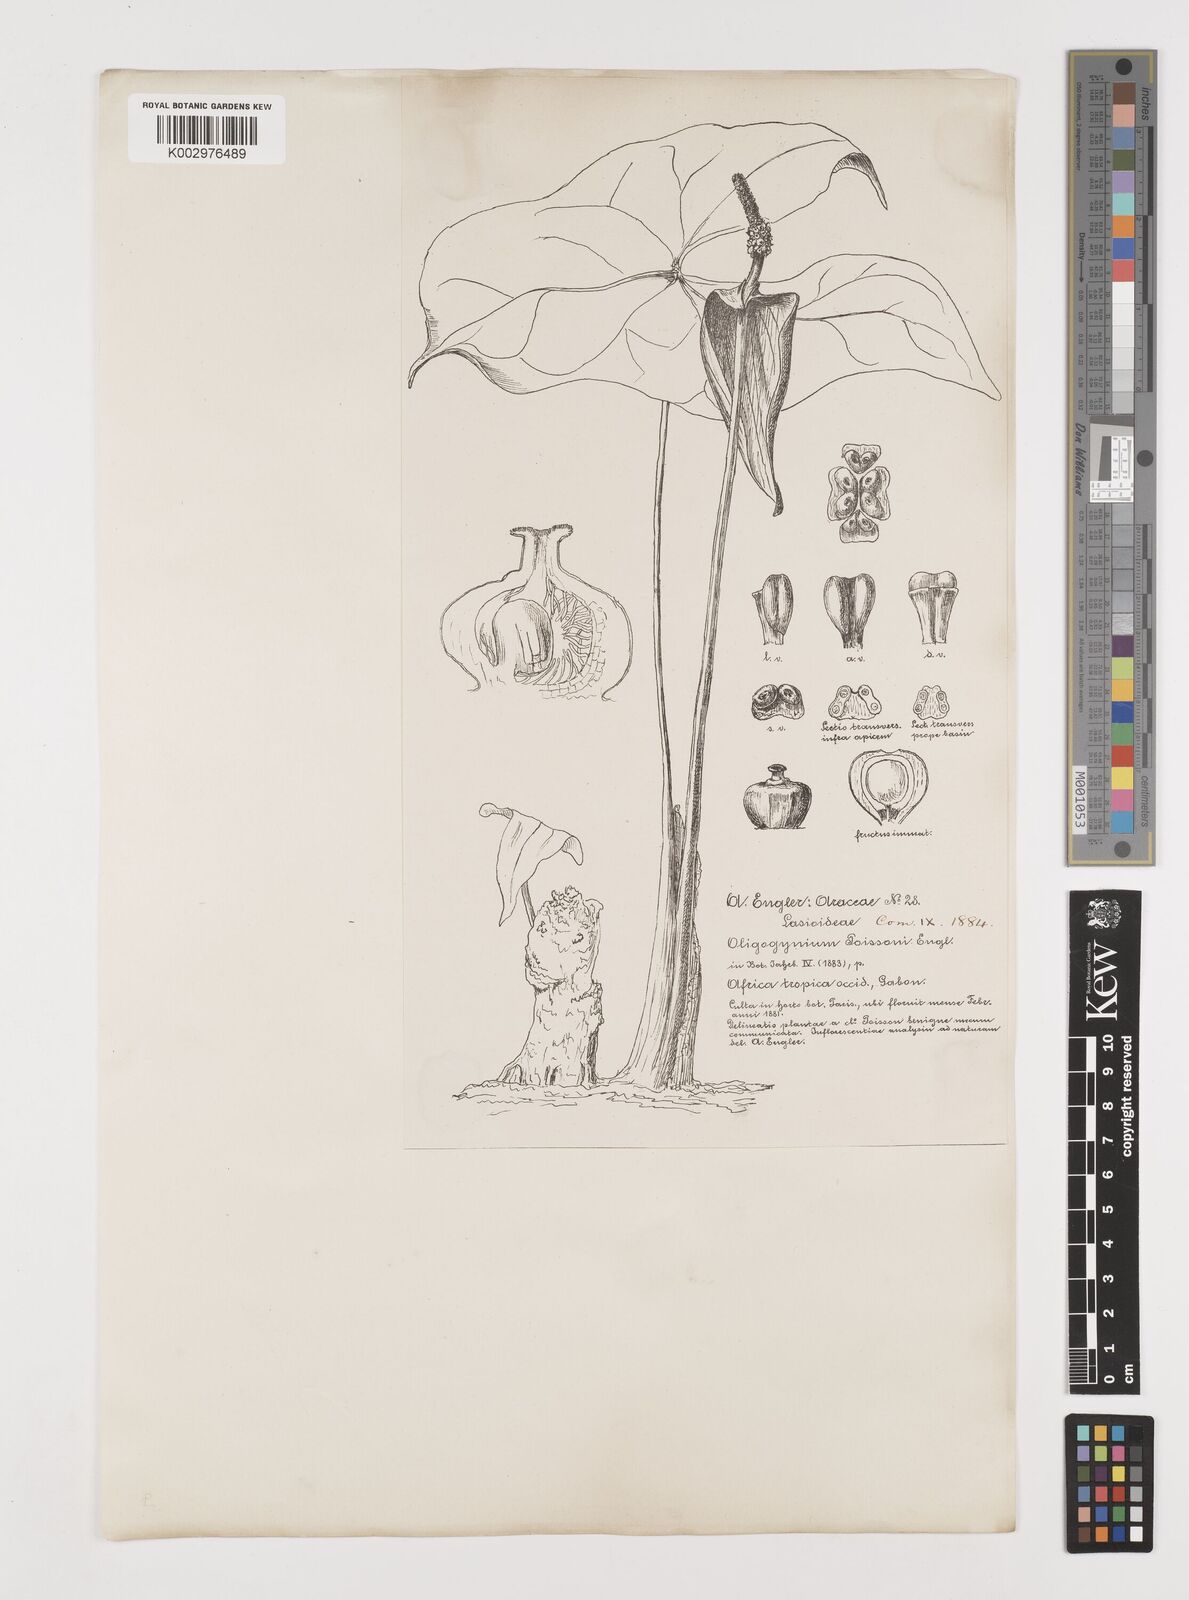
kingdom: Plantae
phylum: Tracheophyta
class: Liliopsida
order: Alismatales
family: Araceae
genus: Nephthytis
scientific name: Nephthytis
